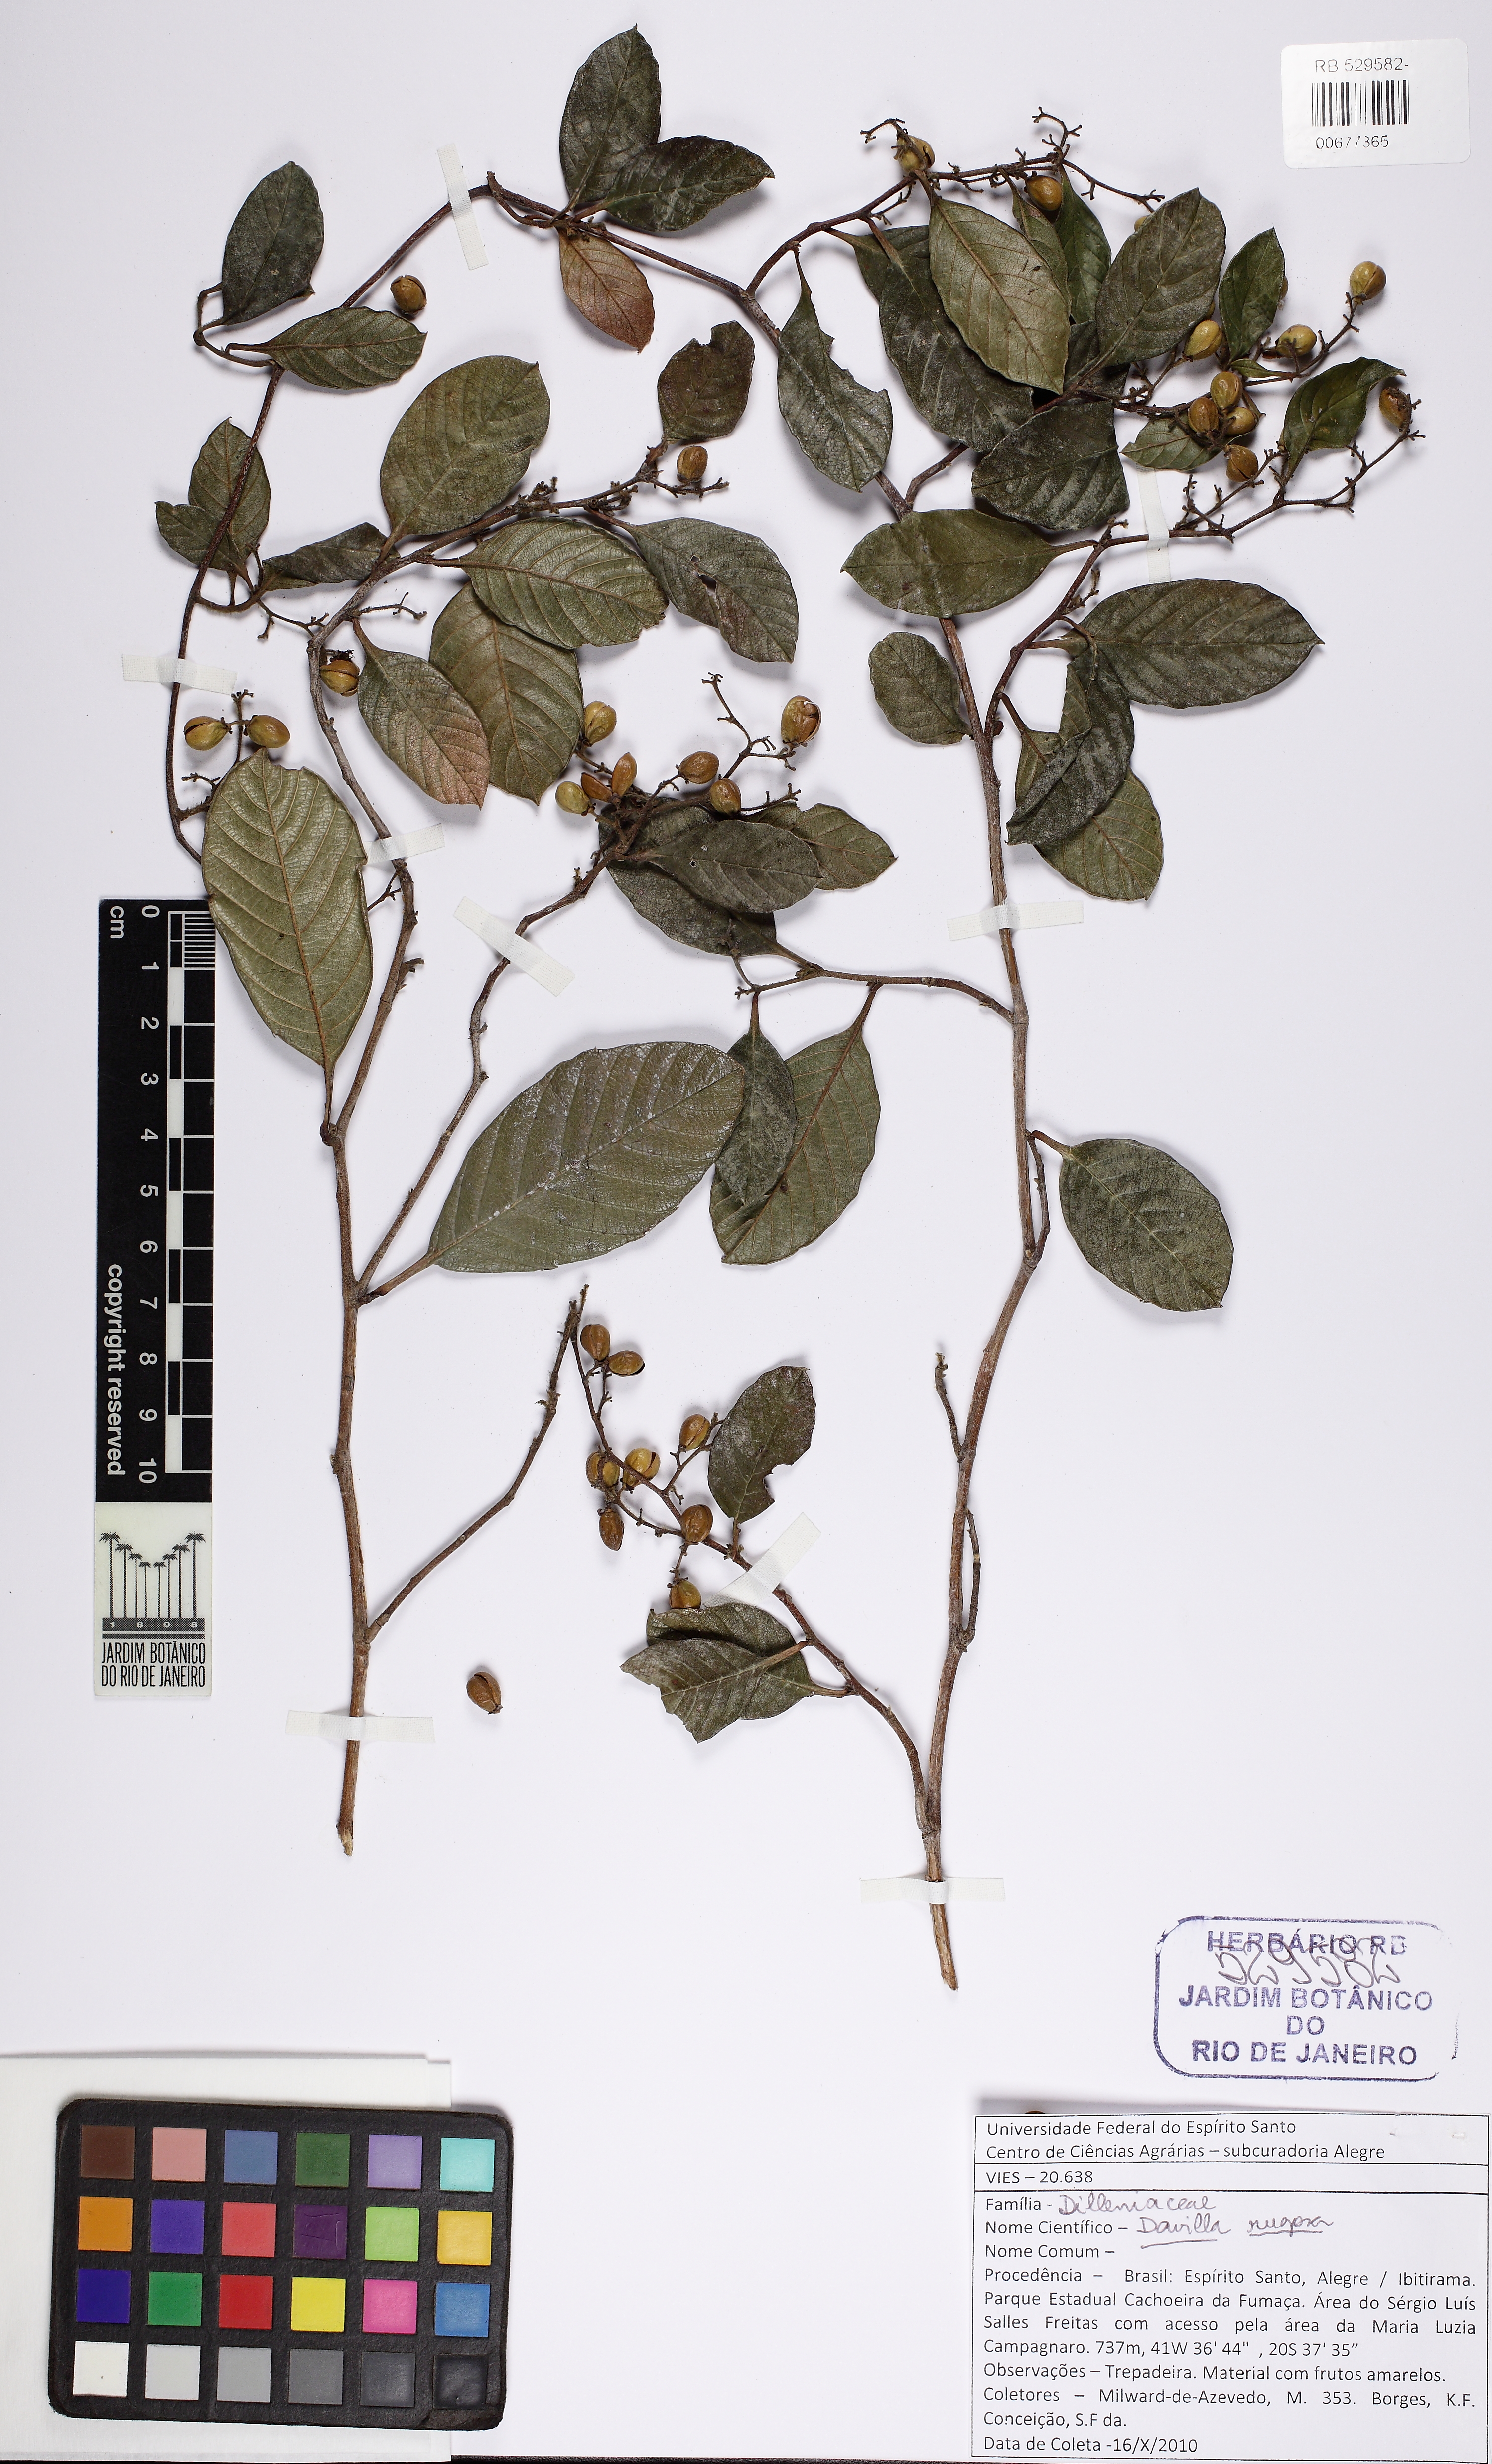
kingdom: Plantae
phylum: Tracheophyta
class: Magnoliopsida
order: Dilleniales
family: Dilleniaceae
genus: Davilla
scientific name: Davilla rugosa
